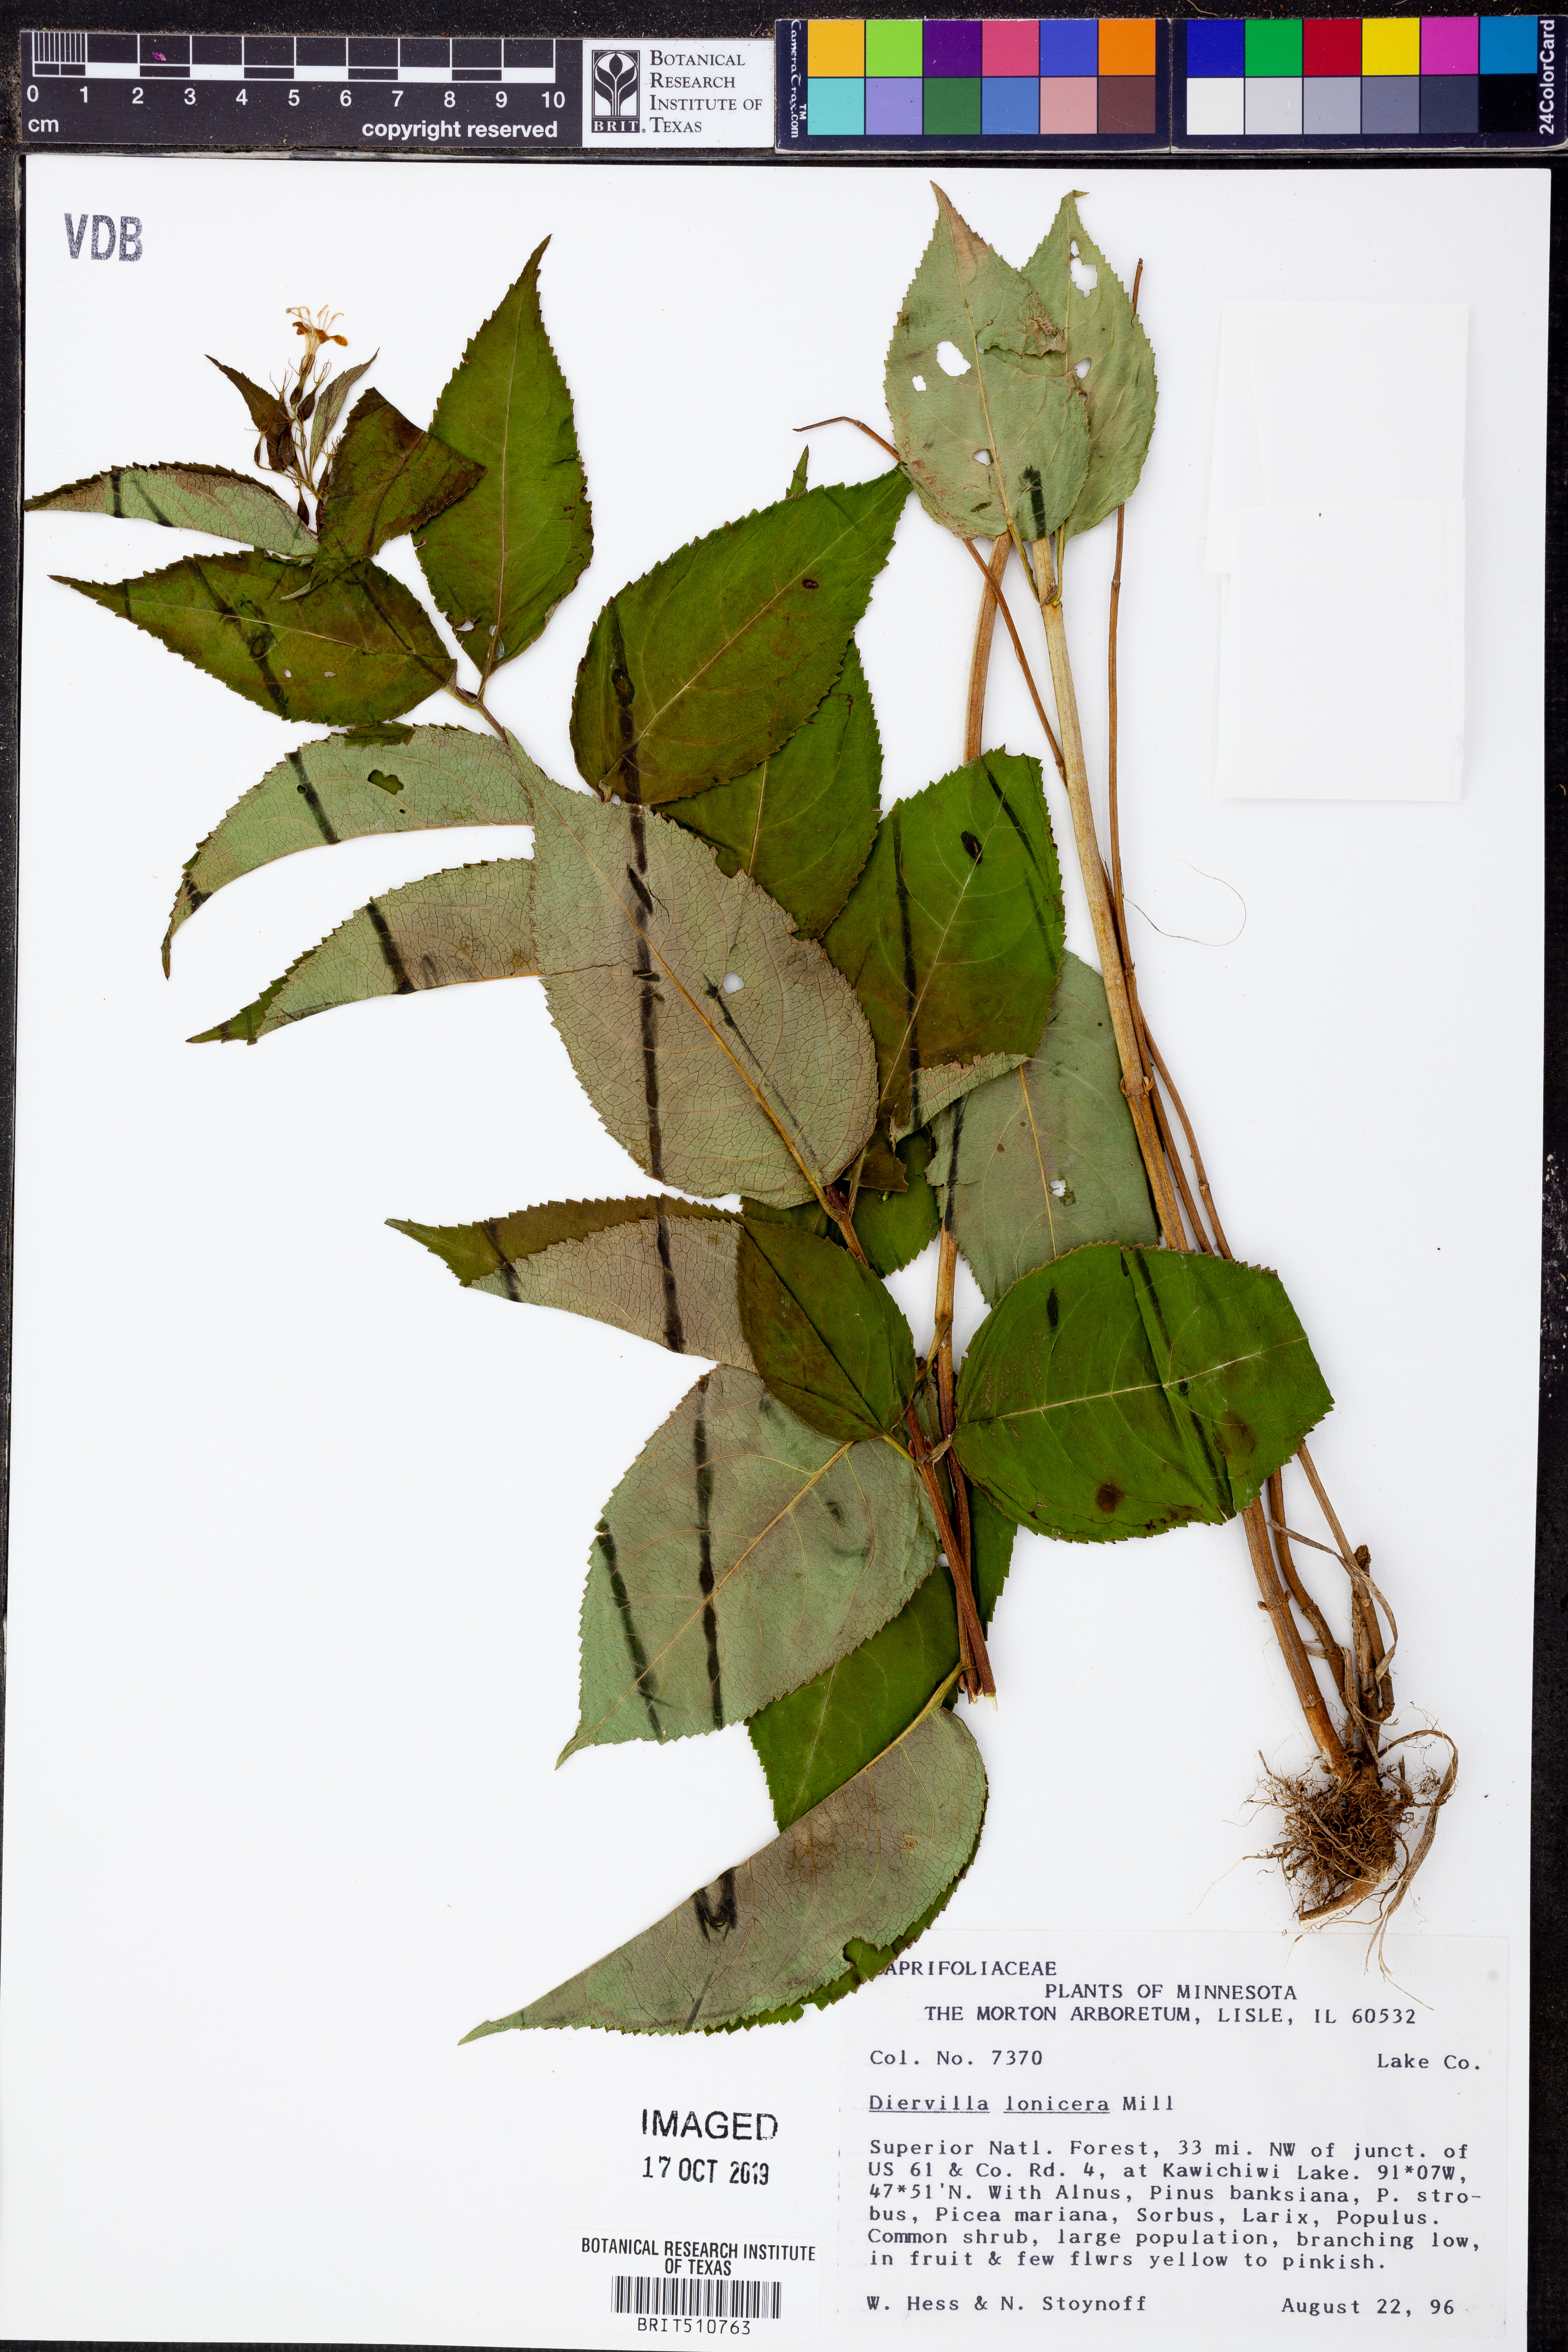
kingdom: Plantae
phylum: Tracheophyta
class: Magnoliopsida
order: Dipsacales
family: Caprifoliaceae
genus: Diervilla
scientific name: Diervilla lonicera
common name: Bush-honeysuckle
